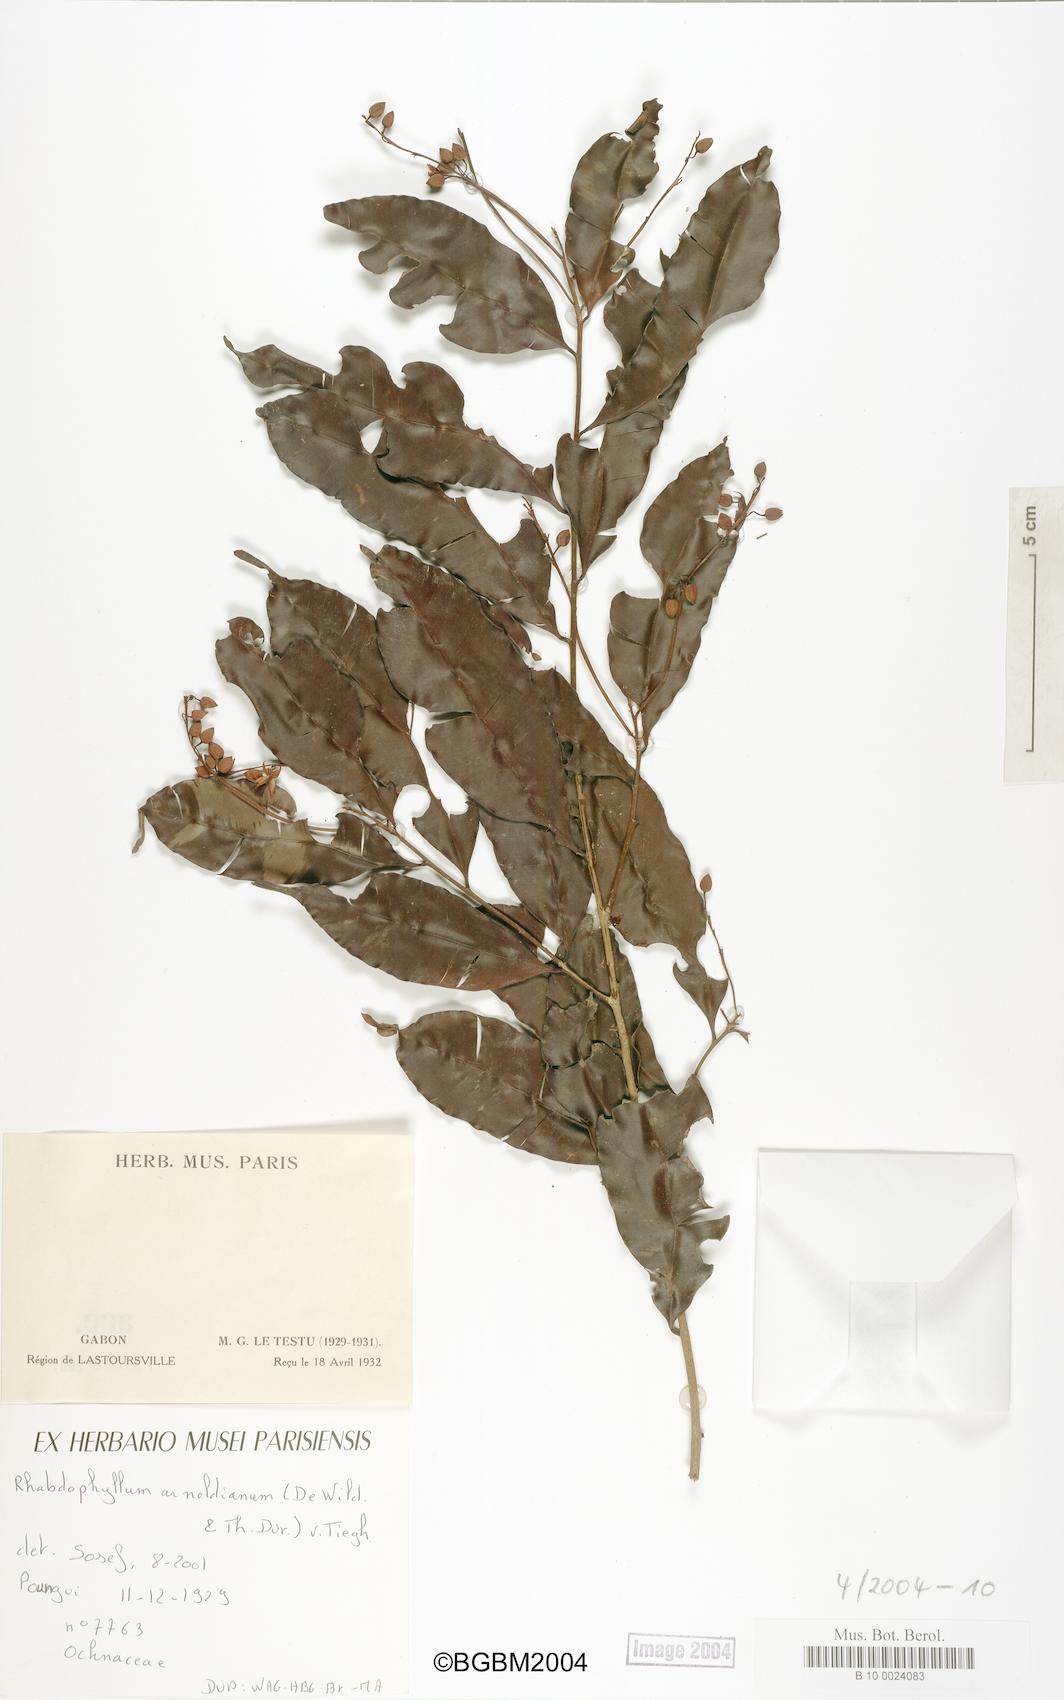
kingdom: Plantae
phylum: Tracheophyta
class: Magnoliopsida
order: Malpighiales
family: Ochnaceae
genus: Rhabdophyllum
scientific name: Rhabdophyllum arnoldianum
